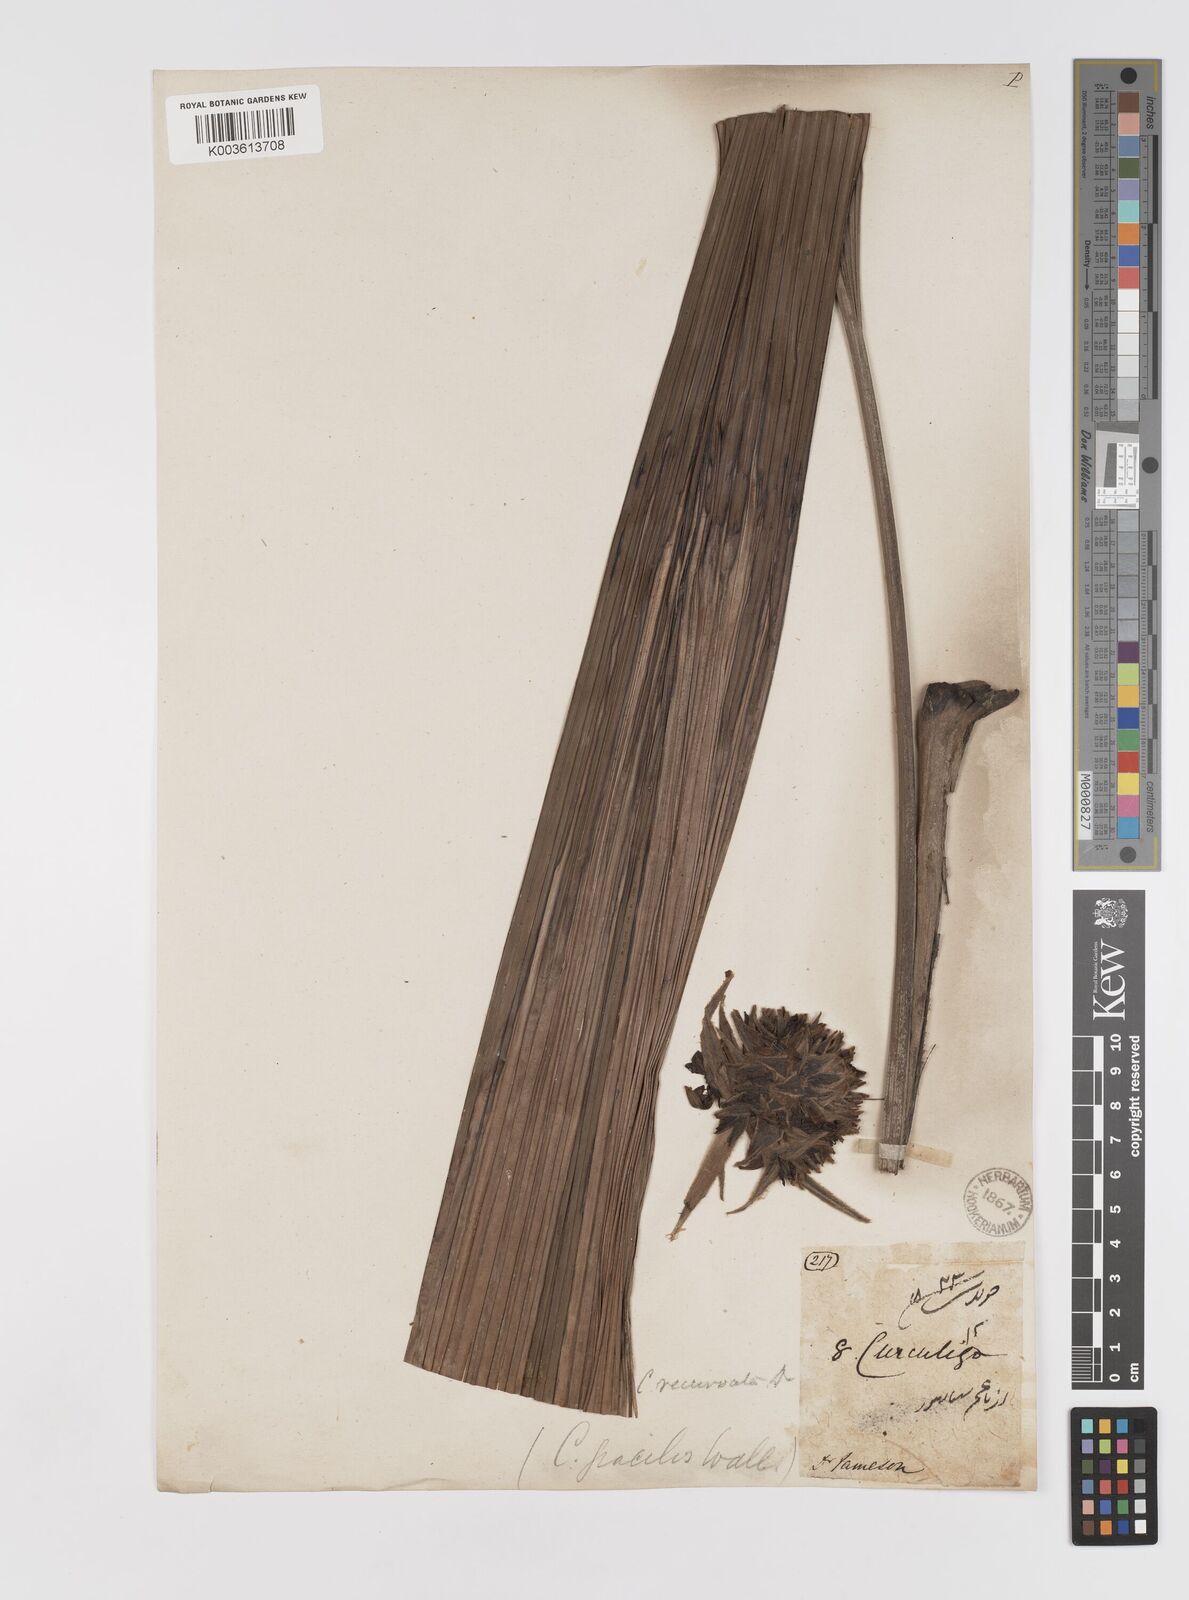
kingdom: Plantae
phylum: Tracheophyta
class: Liliopsida
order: Asparagales
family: Hypoxidaceae
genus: Curculigo
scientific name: Curculigo capitulata
